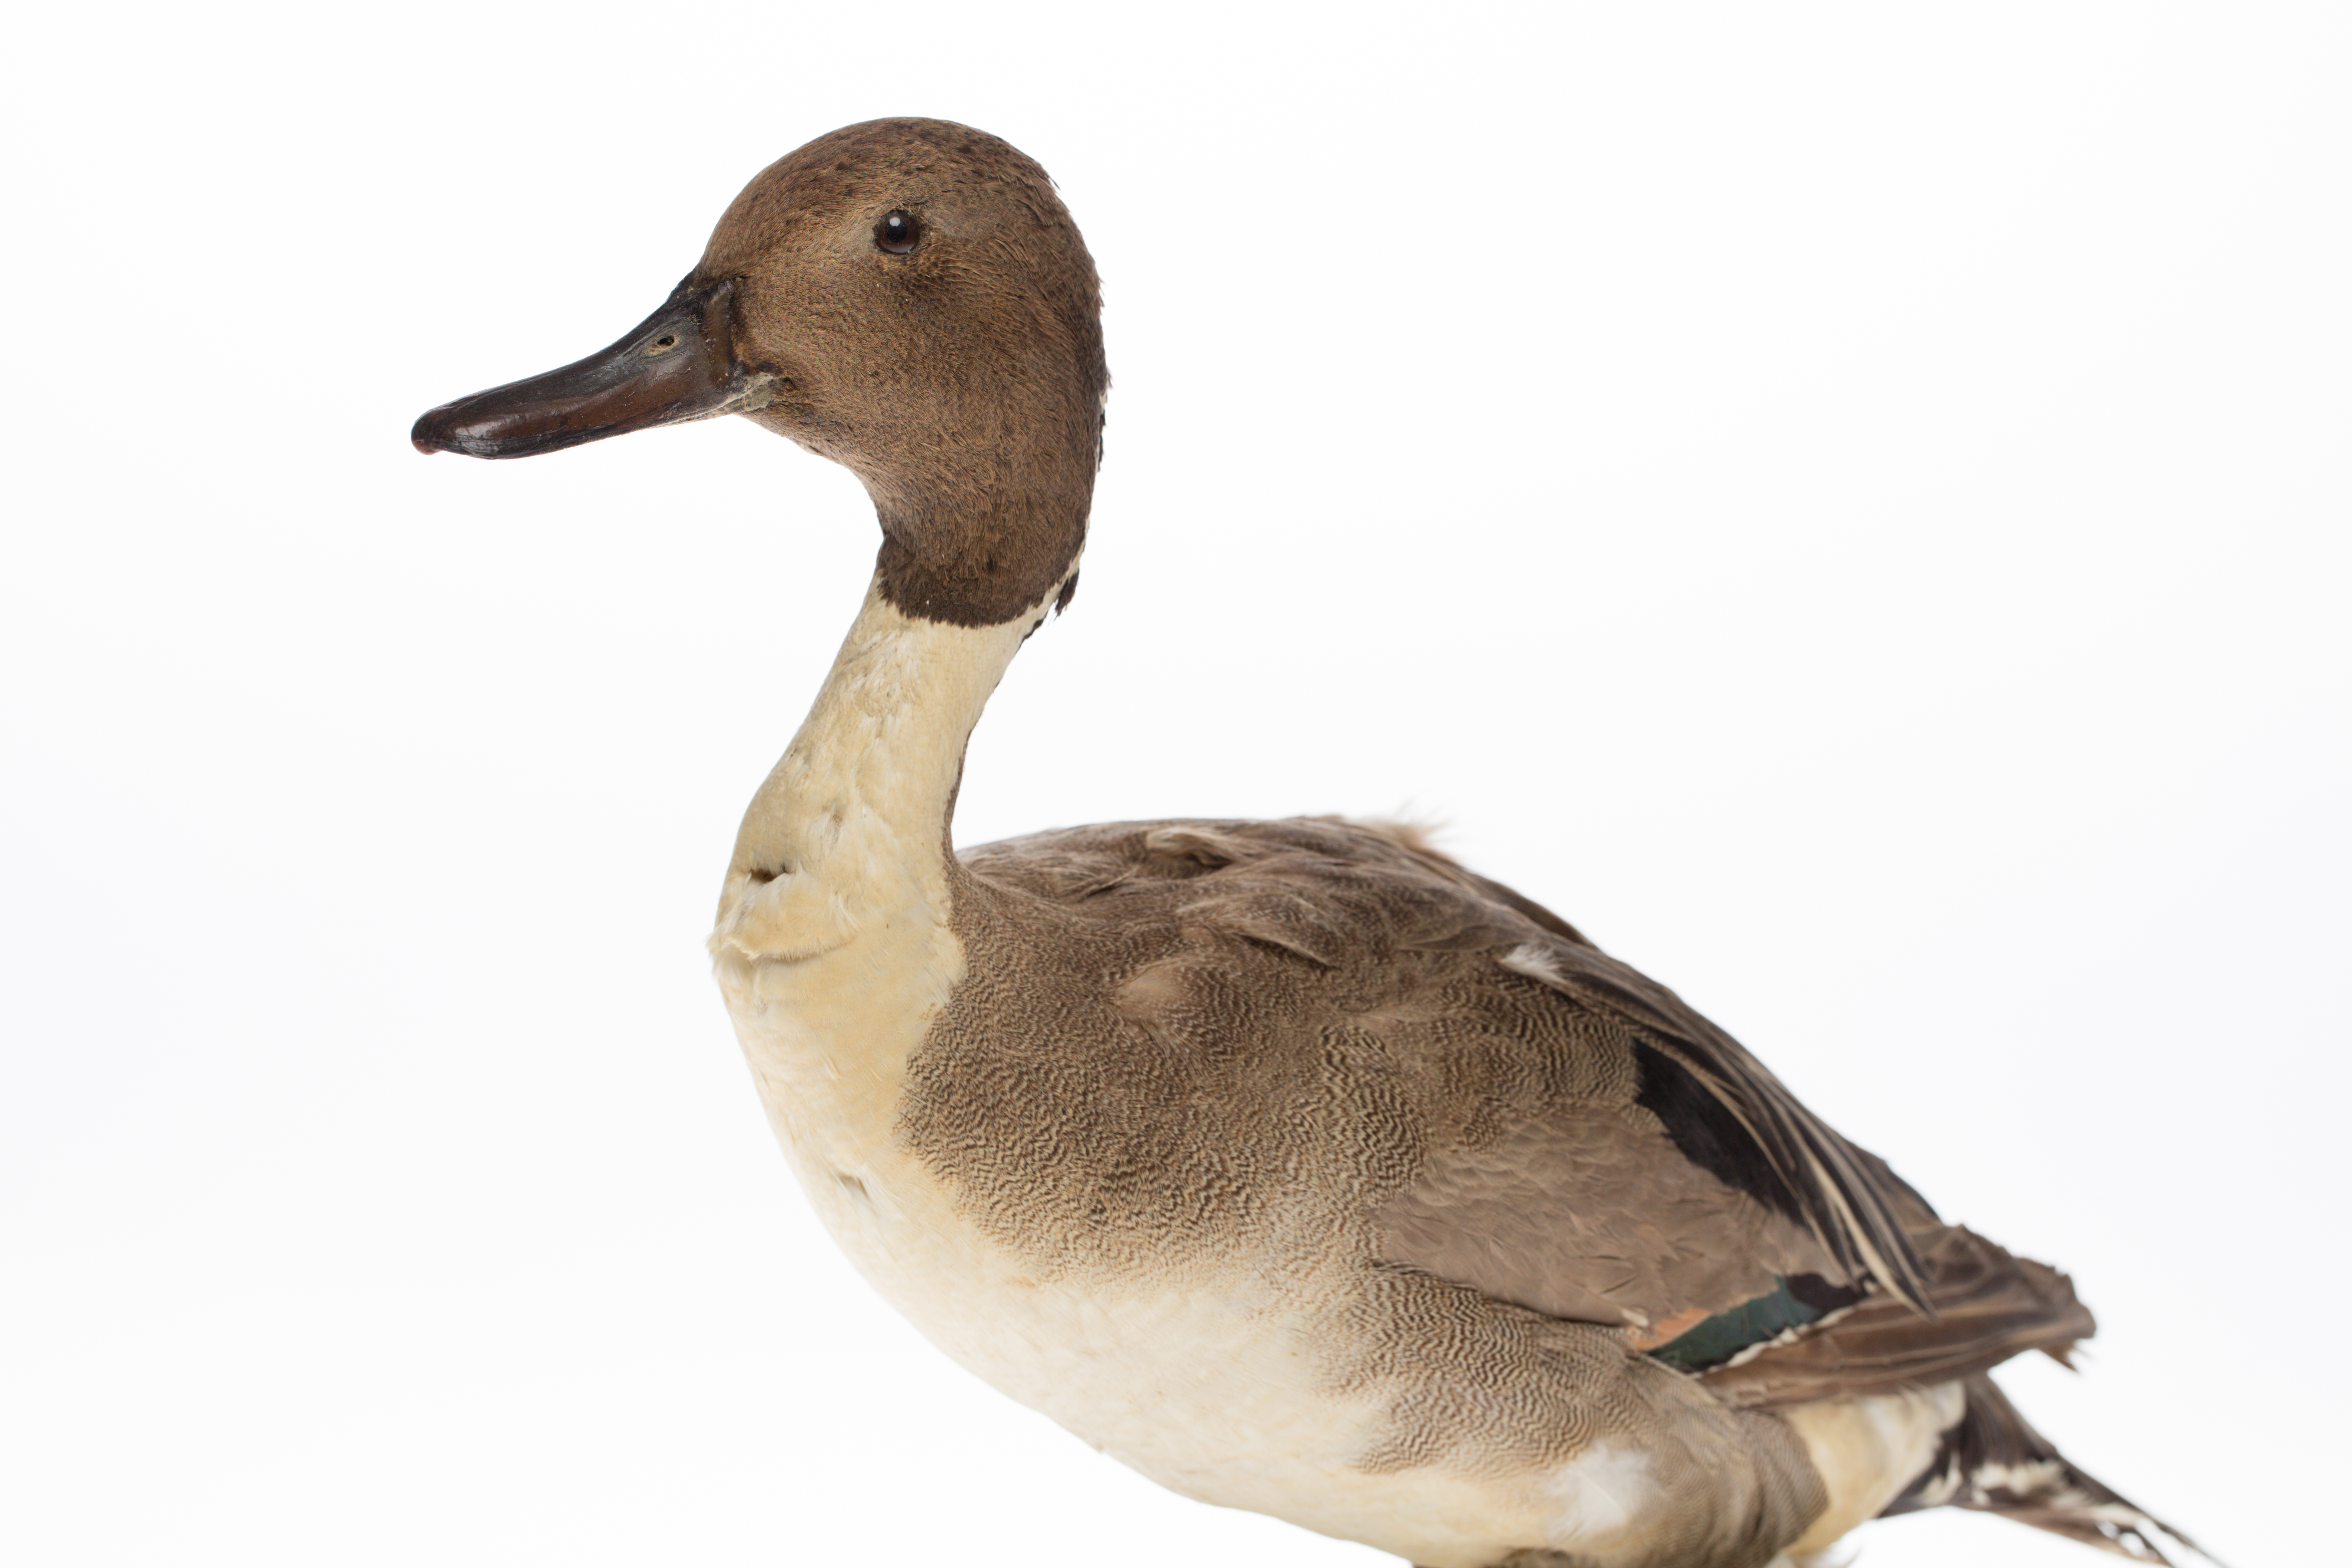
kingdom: Animalia
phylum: Chordata
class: Aves
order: Anseriformes
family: Anatidae
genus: Anas
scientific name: Anas acuta
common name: Northern pintail
